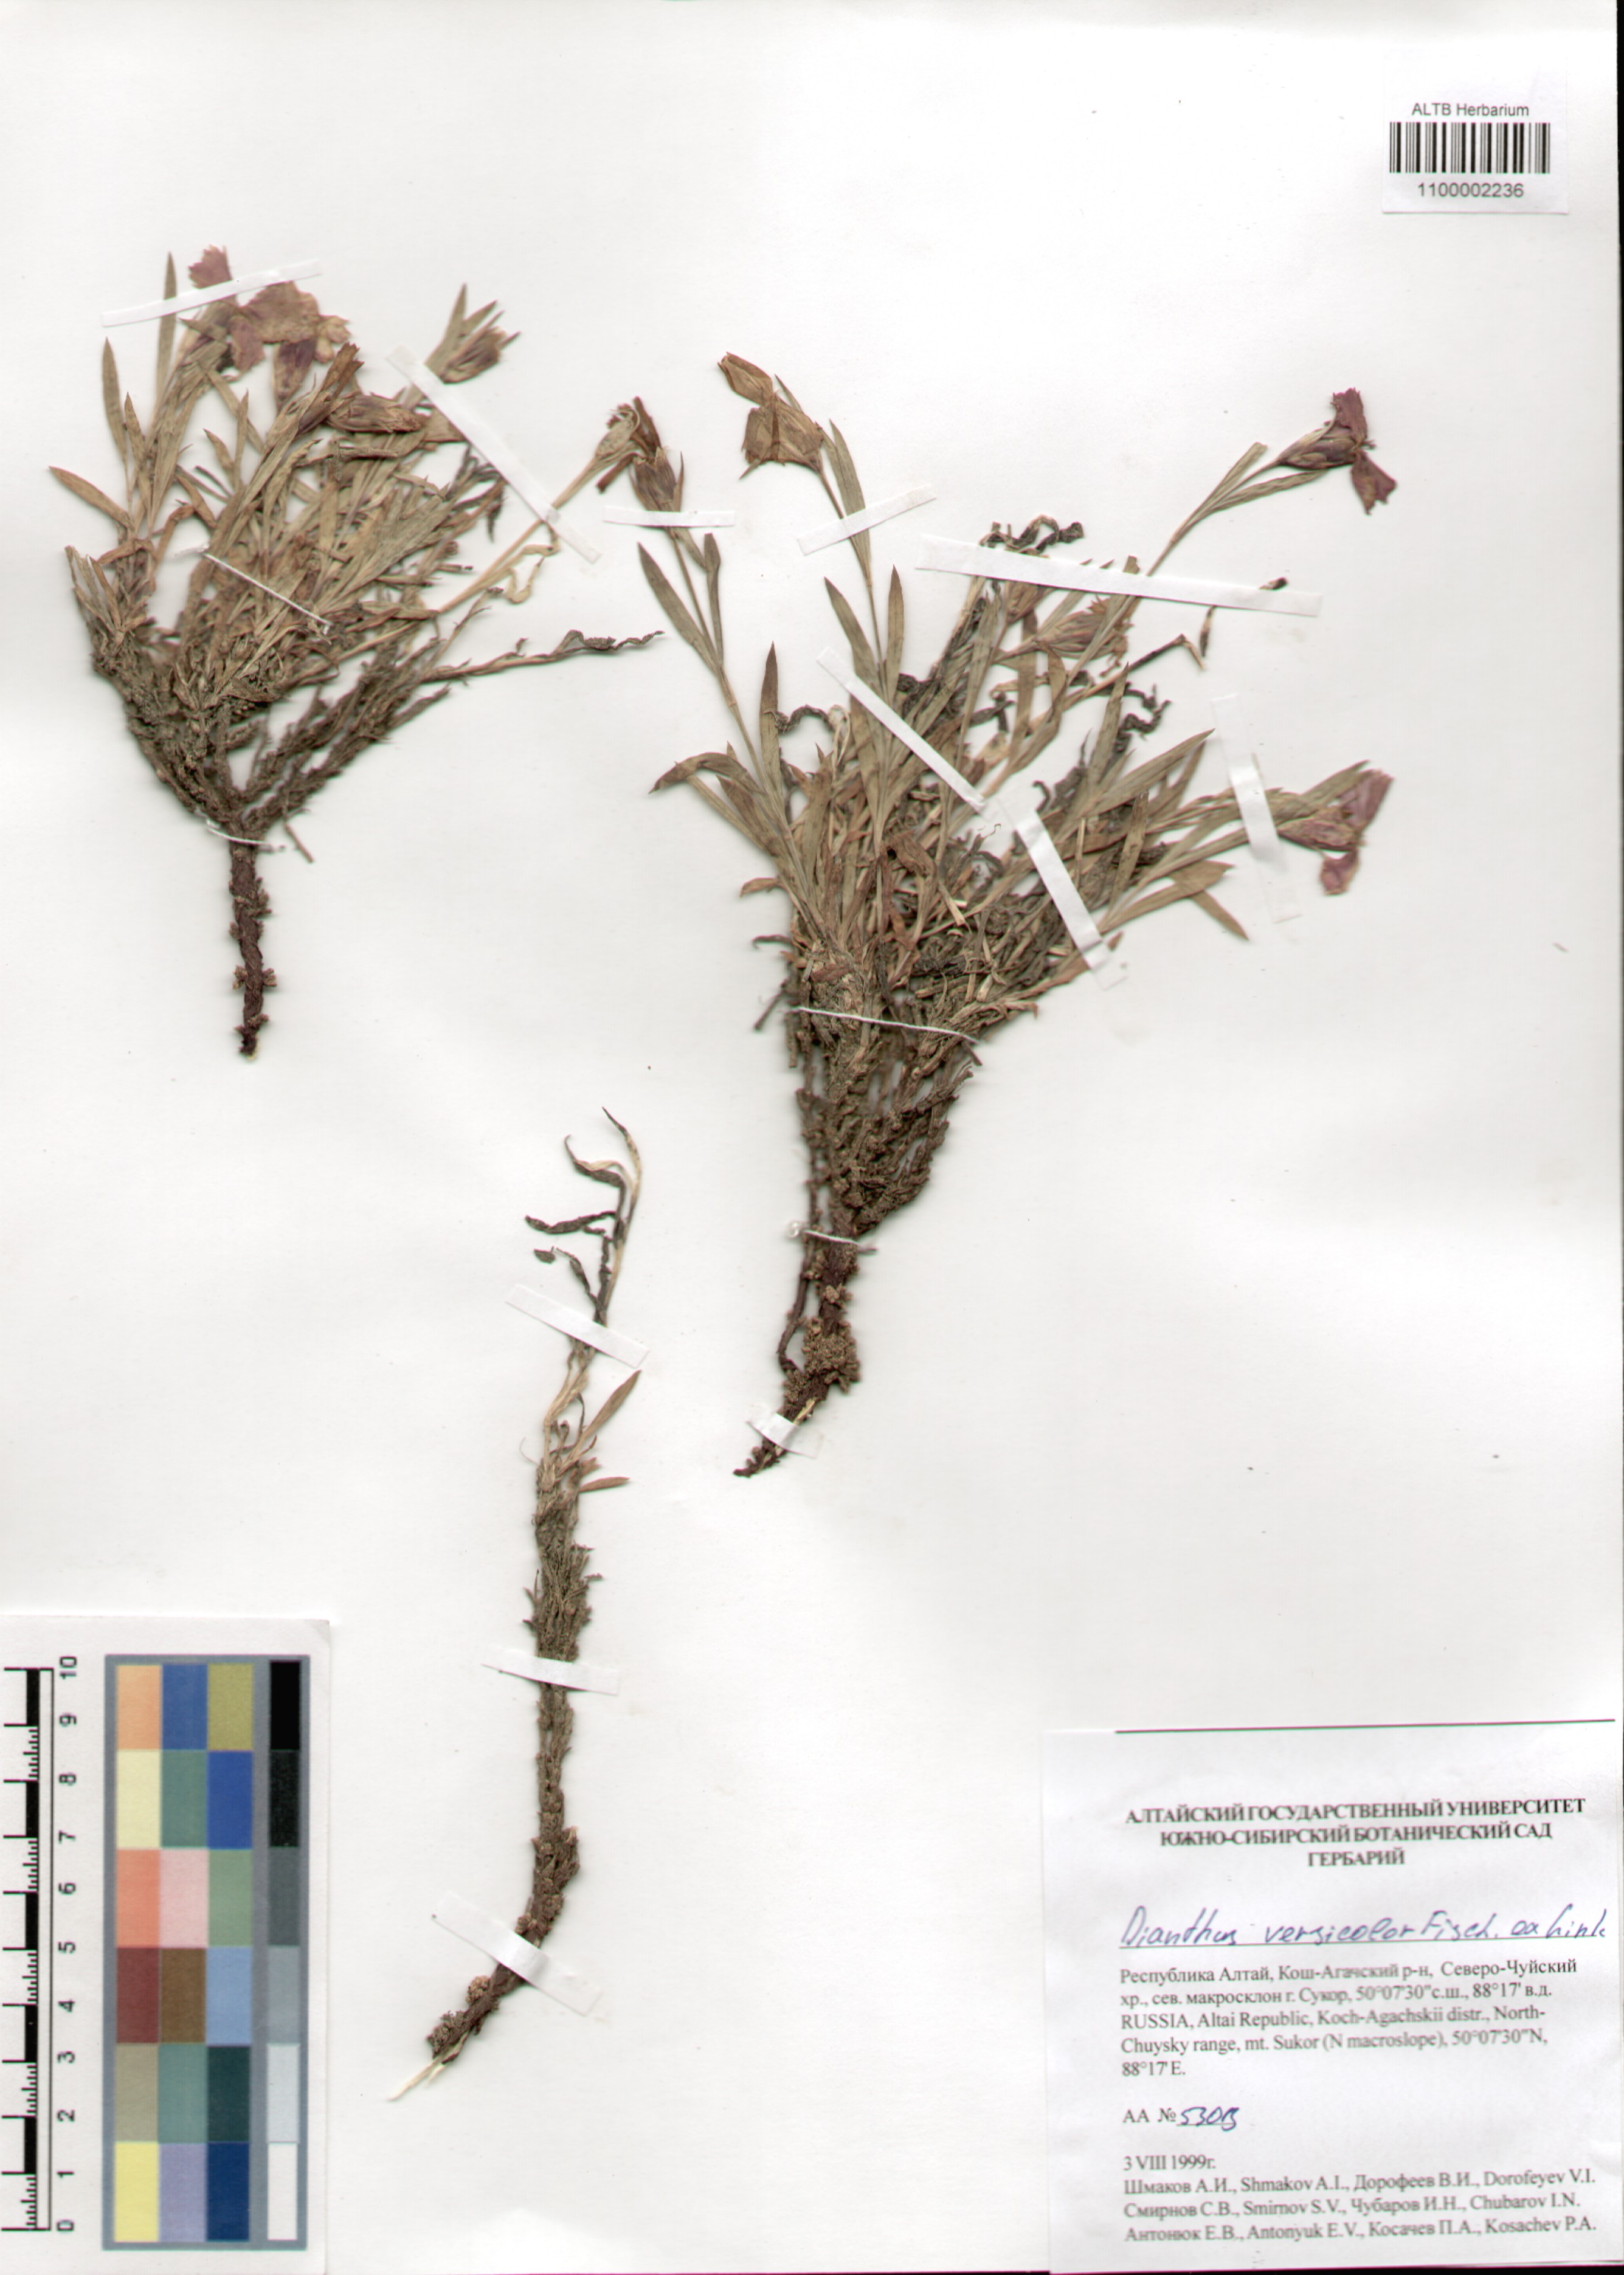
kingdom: Plantae
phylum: Tracheophyta
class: Magnoliopsida
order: Caryophyllales
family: Caryophyllaceae
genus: Dianthus
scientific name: Dianthus chinensis
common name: Rainbow pink
